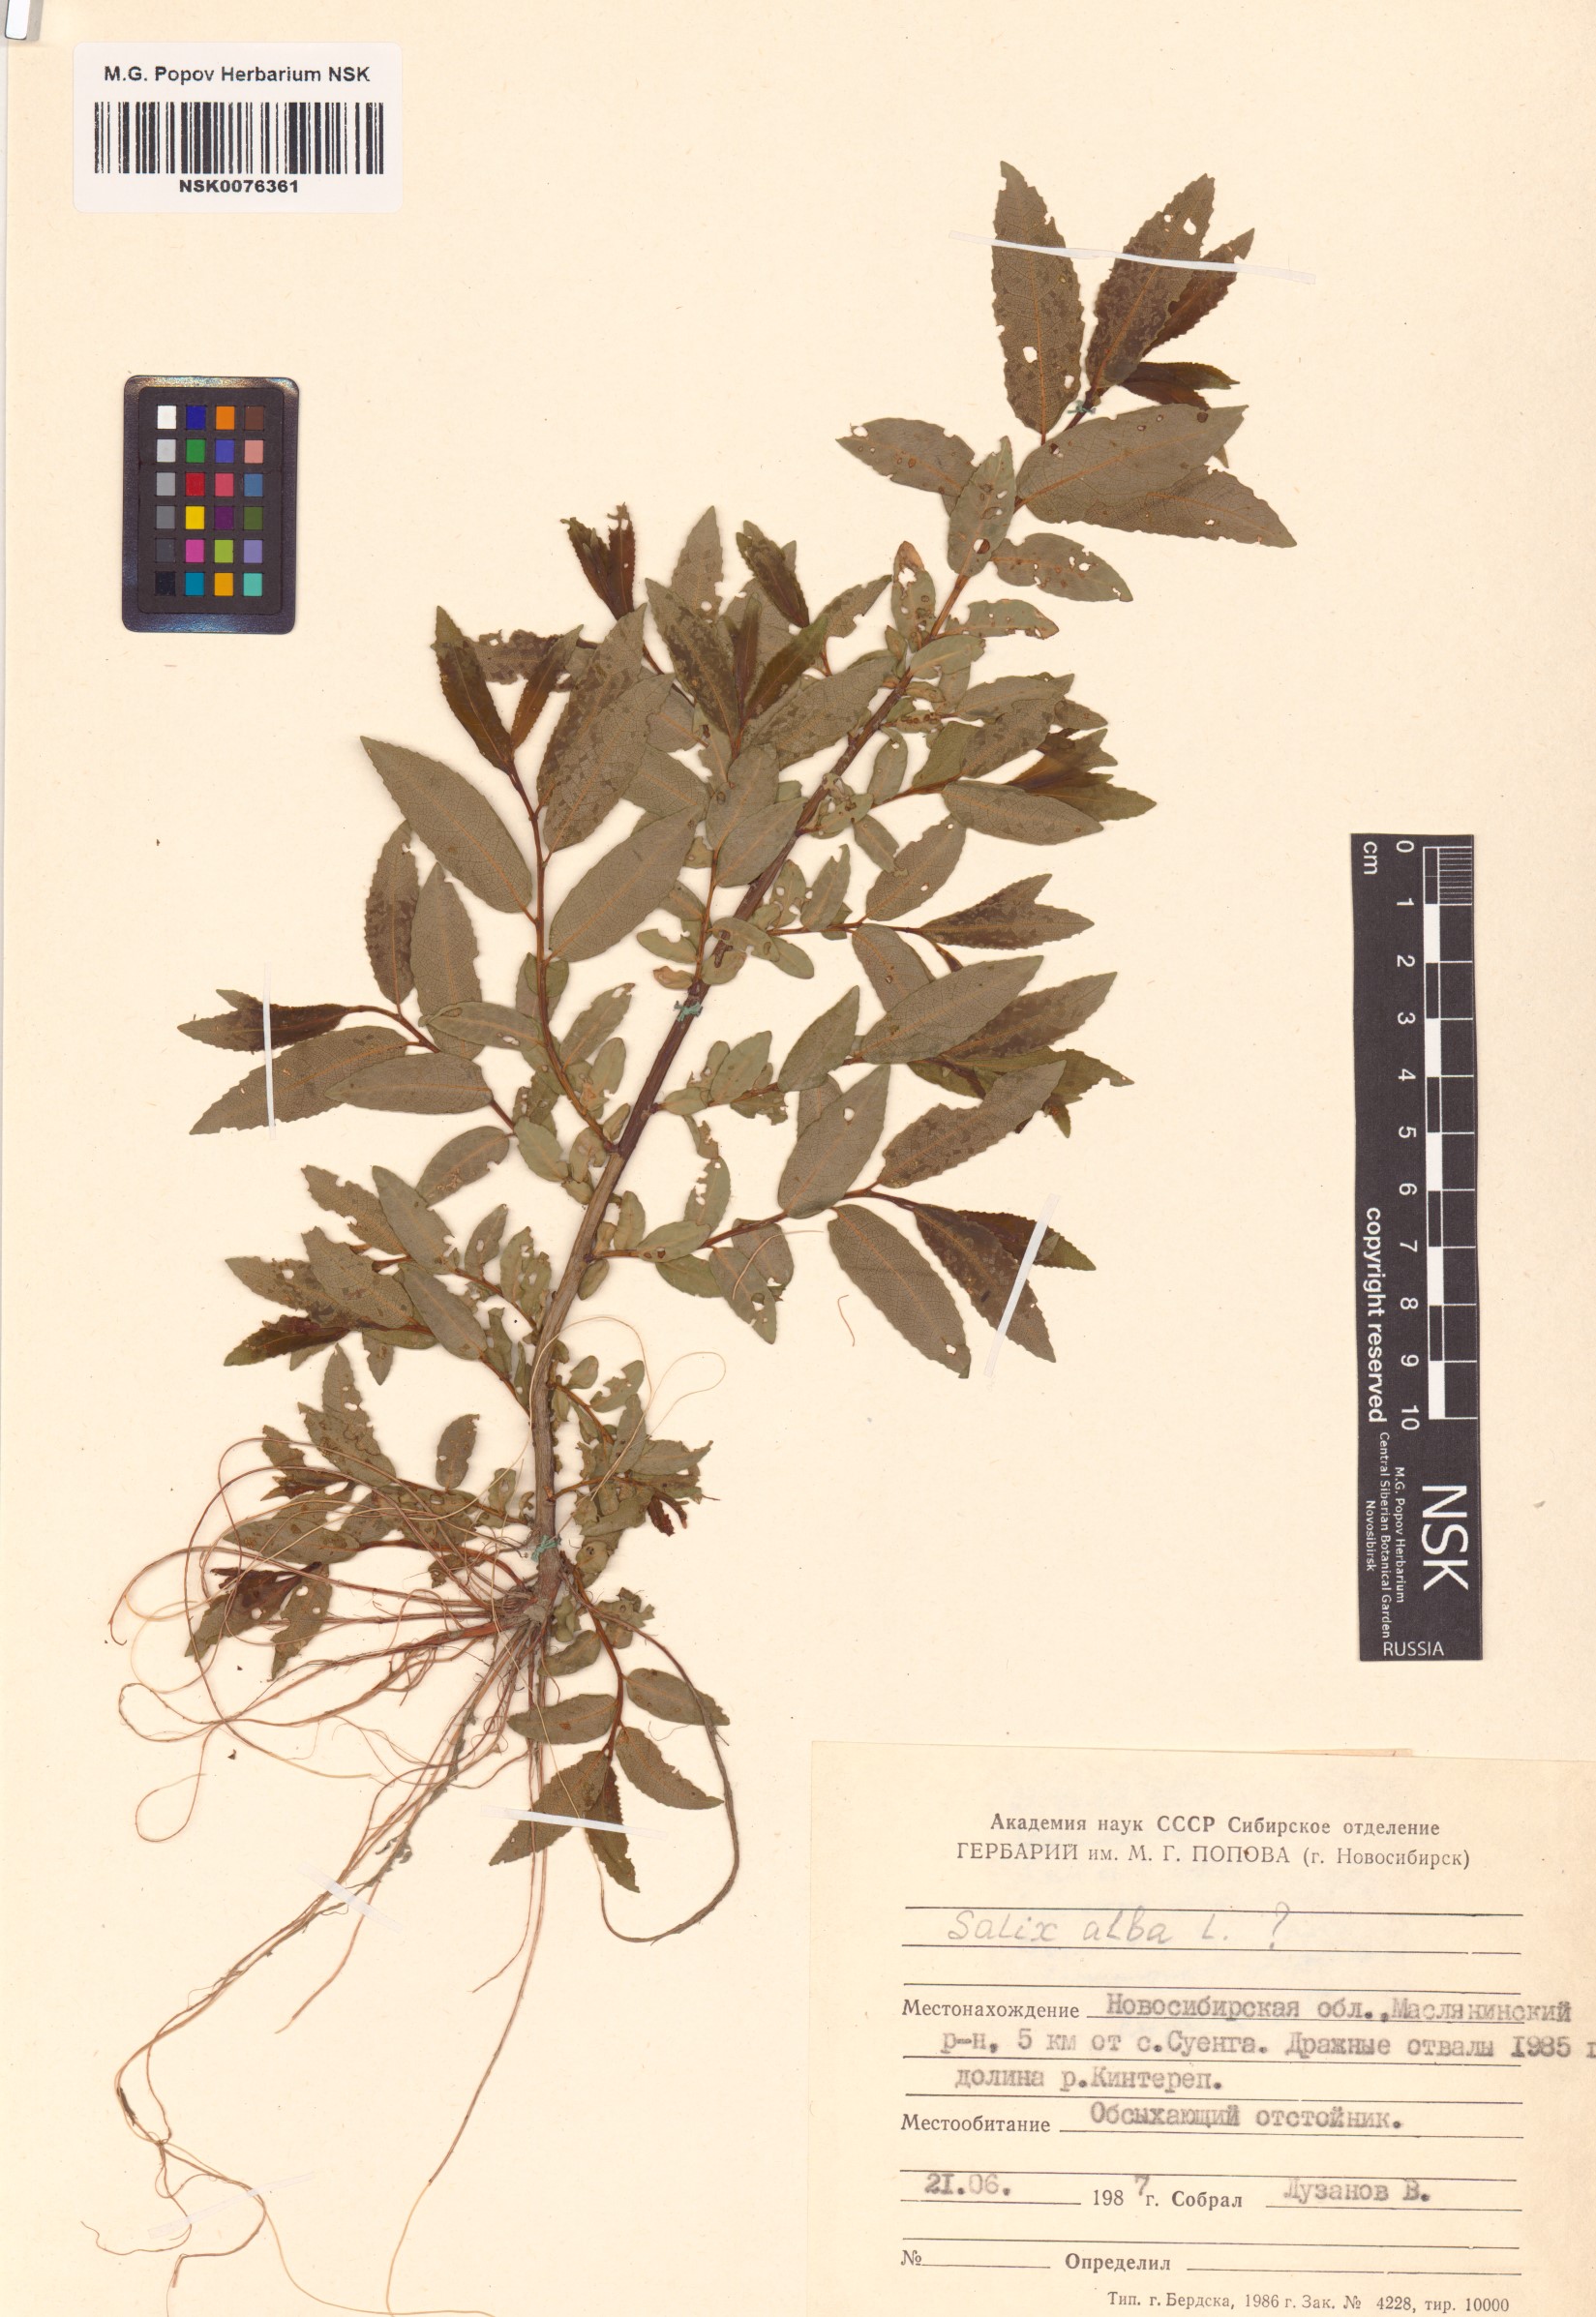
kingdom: Plantae
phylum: Tracheophyta
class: Magnoliopsida
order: Malpighiales
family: Salicaceae
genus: Salix
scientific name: Salix alba
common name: White willow
